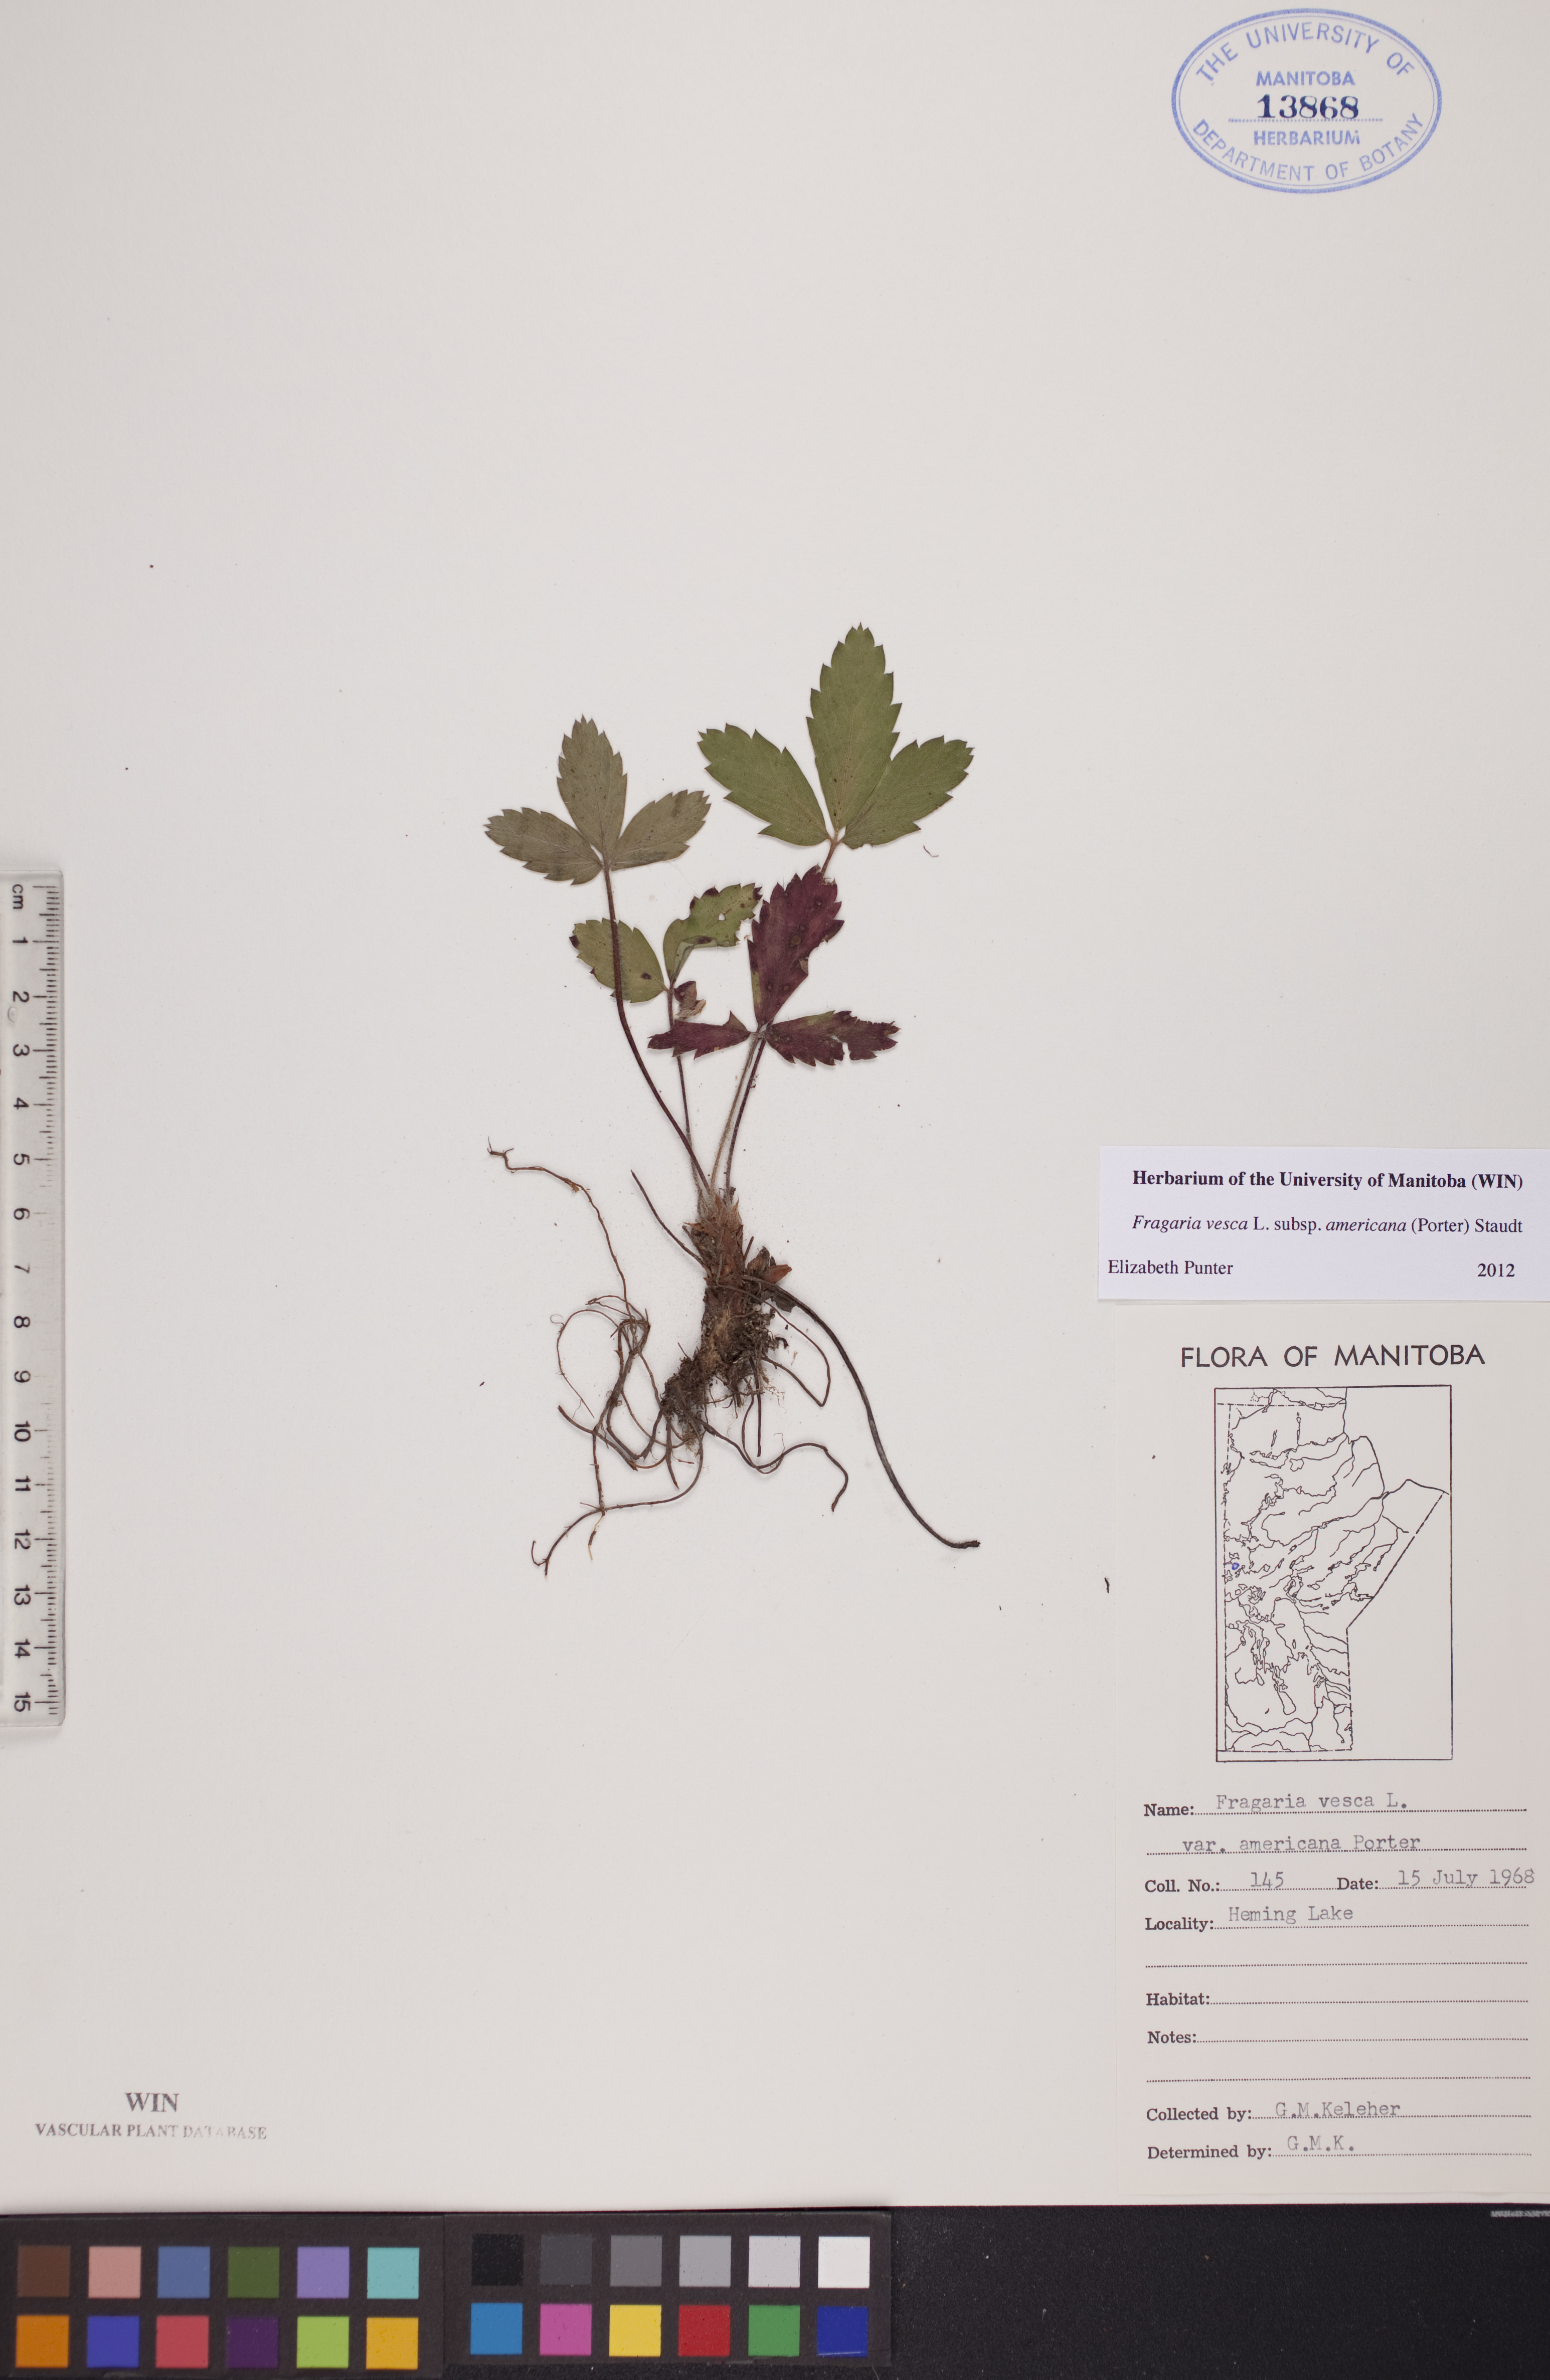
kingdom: Plantae
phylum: Tracheophyta
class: Magnoliopsida
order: Rosales
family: Rosaceae
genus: Fragaria
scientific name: Fragaria vesca
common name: Wild strawberry
